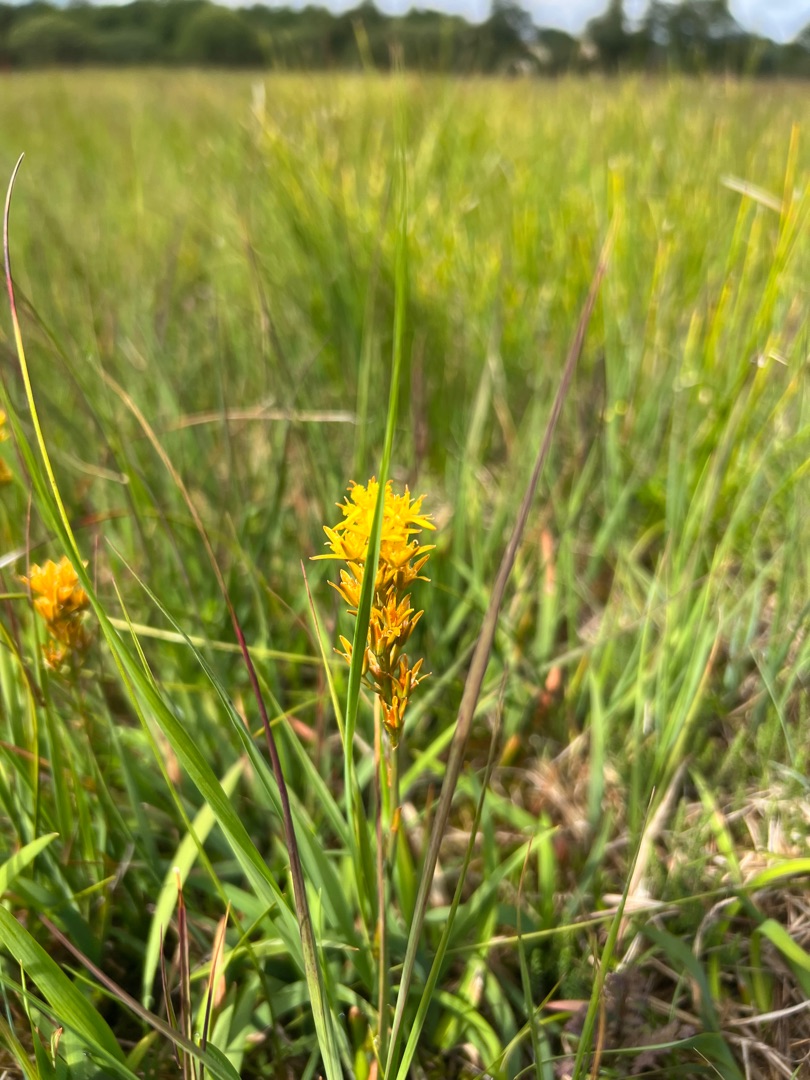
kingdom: Plantae
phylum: Tracheophyta
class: Liliopsida
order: Dioscoreales
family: Nartheciaceae
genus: Narthecium
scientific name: Narthecium ossifragum
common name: Benbræk
